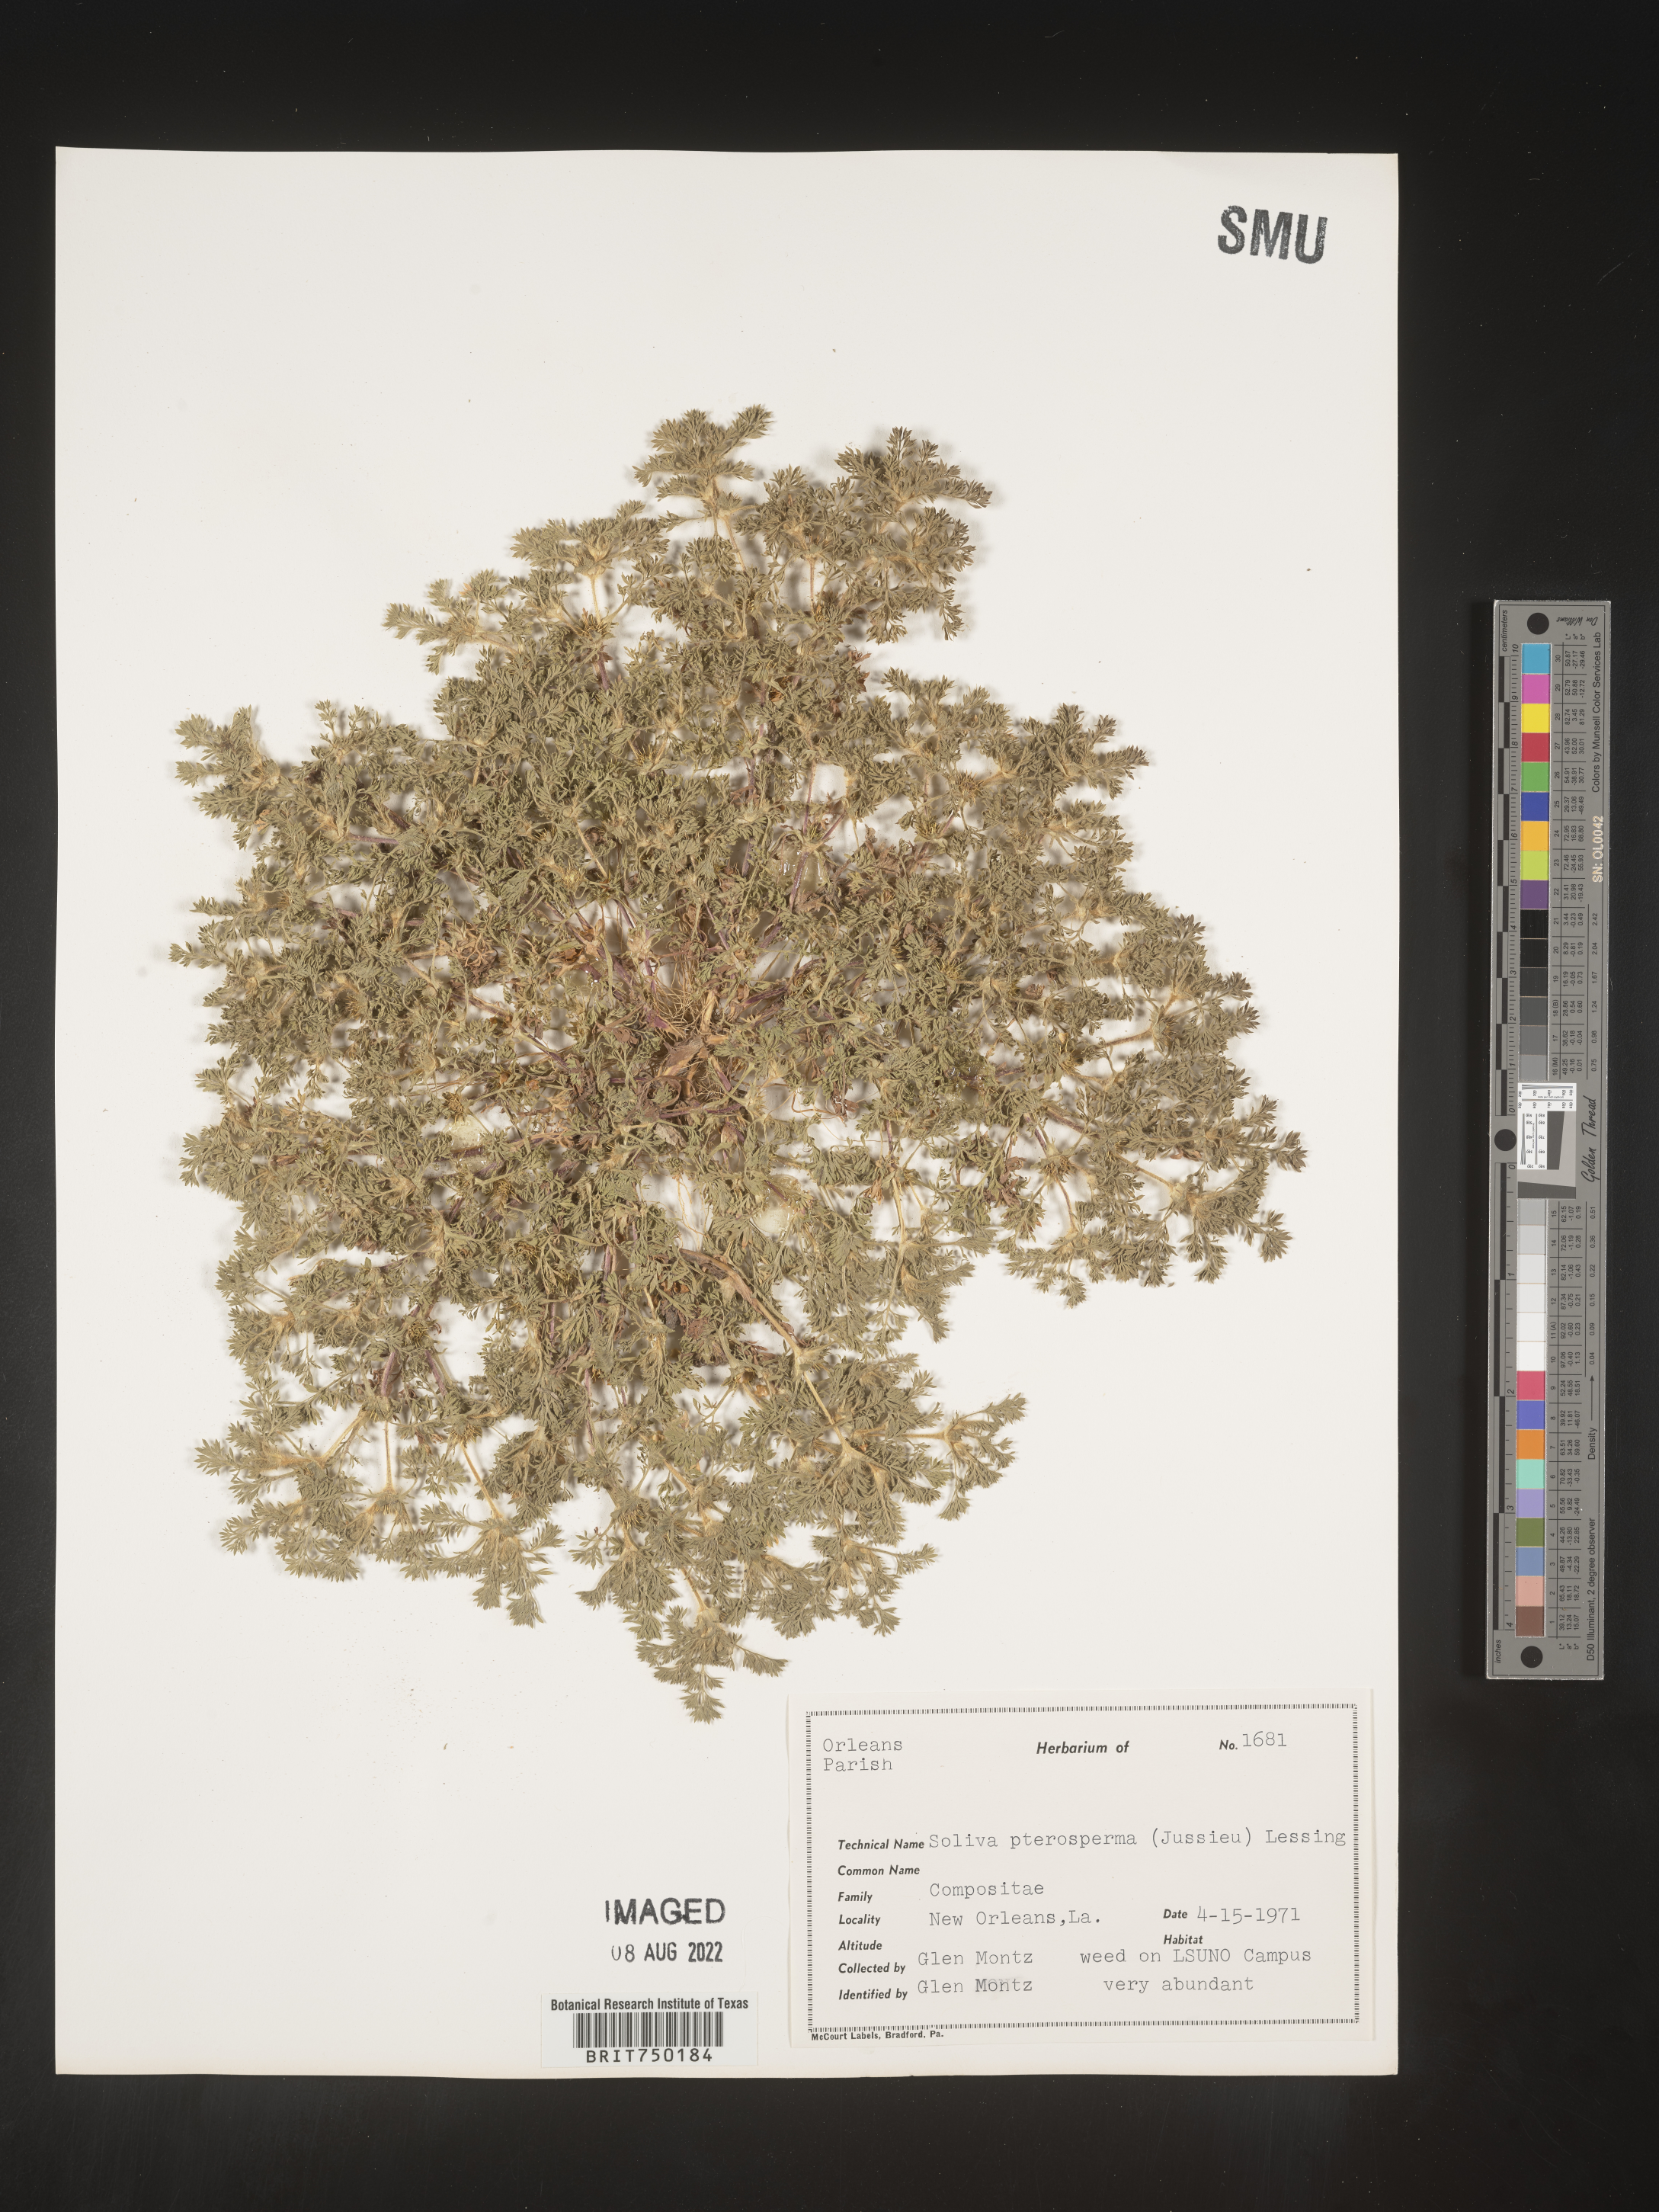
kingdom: Plantae
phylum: Tracheophyta
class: Magnoliopsida
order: Asterales
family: Asteraceae
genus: Soliva
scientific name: Soliva sessilis
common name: Field burrweed
